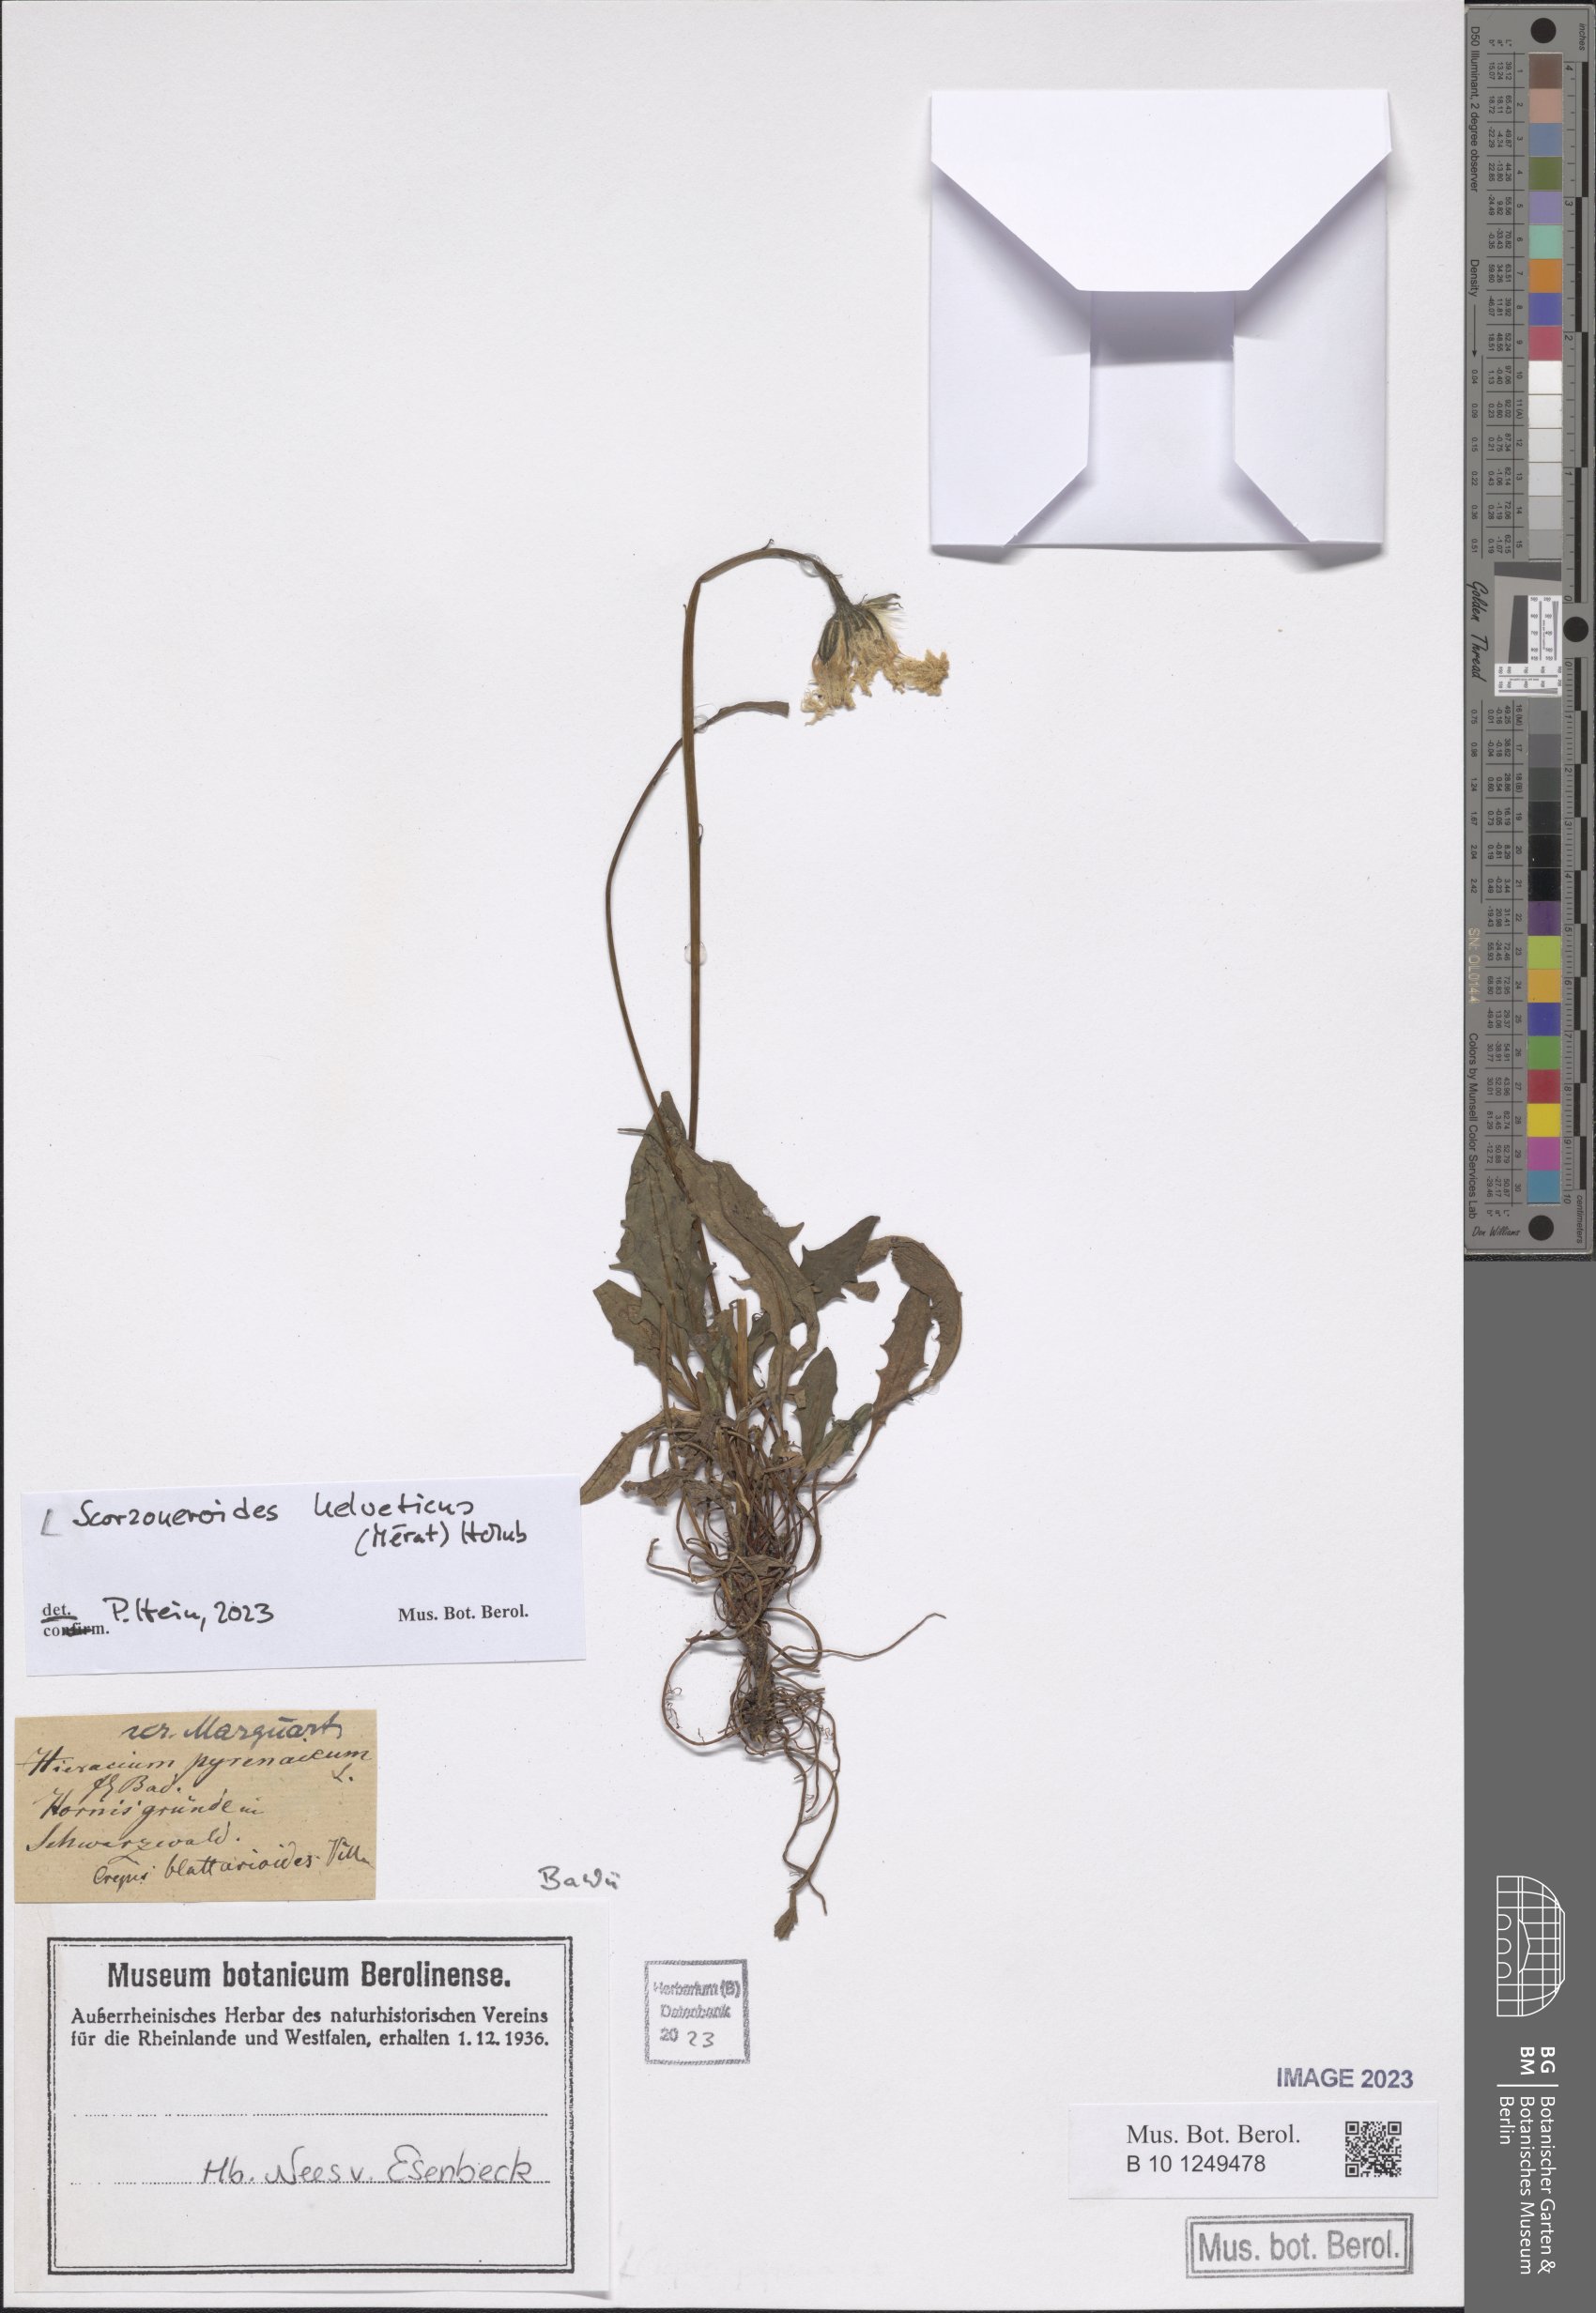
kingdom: Plantae
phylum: Tracheophyta
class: Magnoliopsida
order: Asterales
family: Asteraceae
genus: Scorzoneroides
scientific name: Scorzoneroides helvetica
